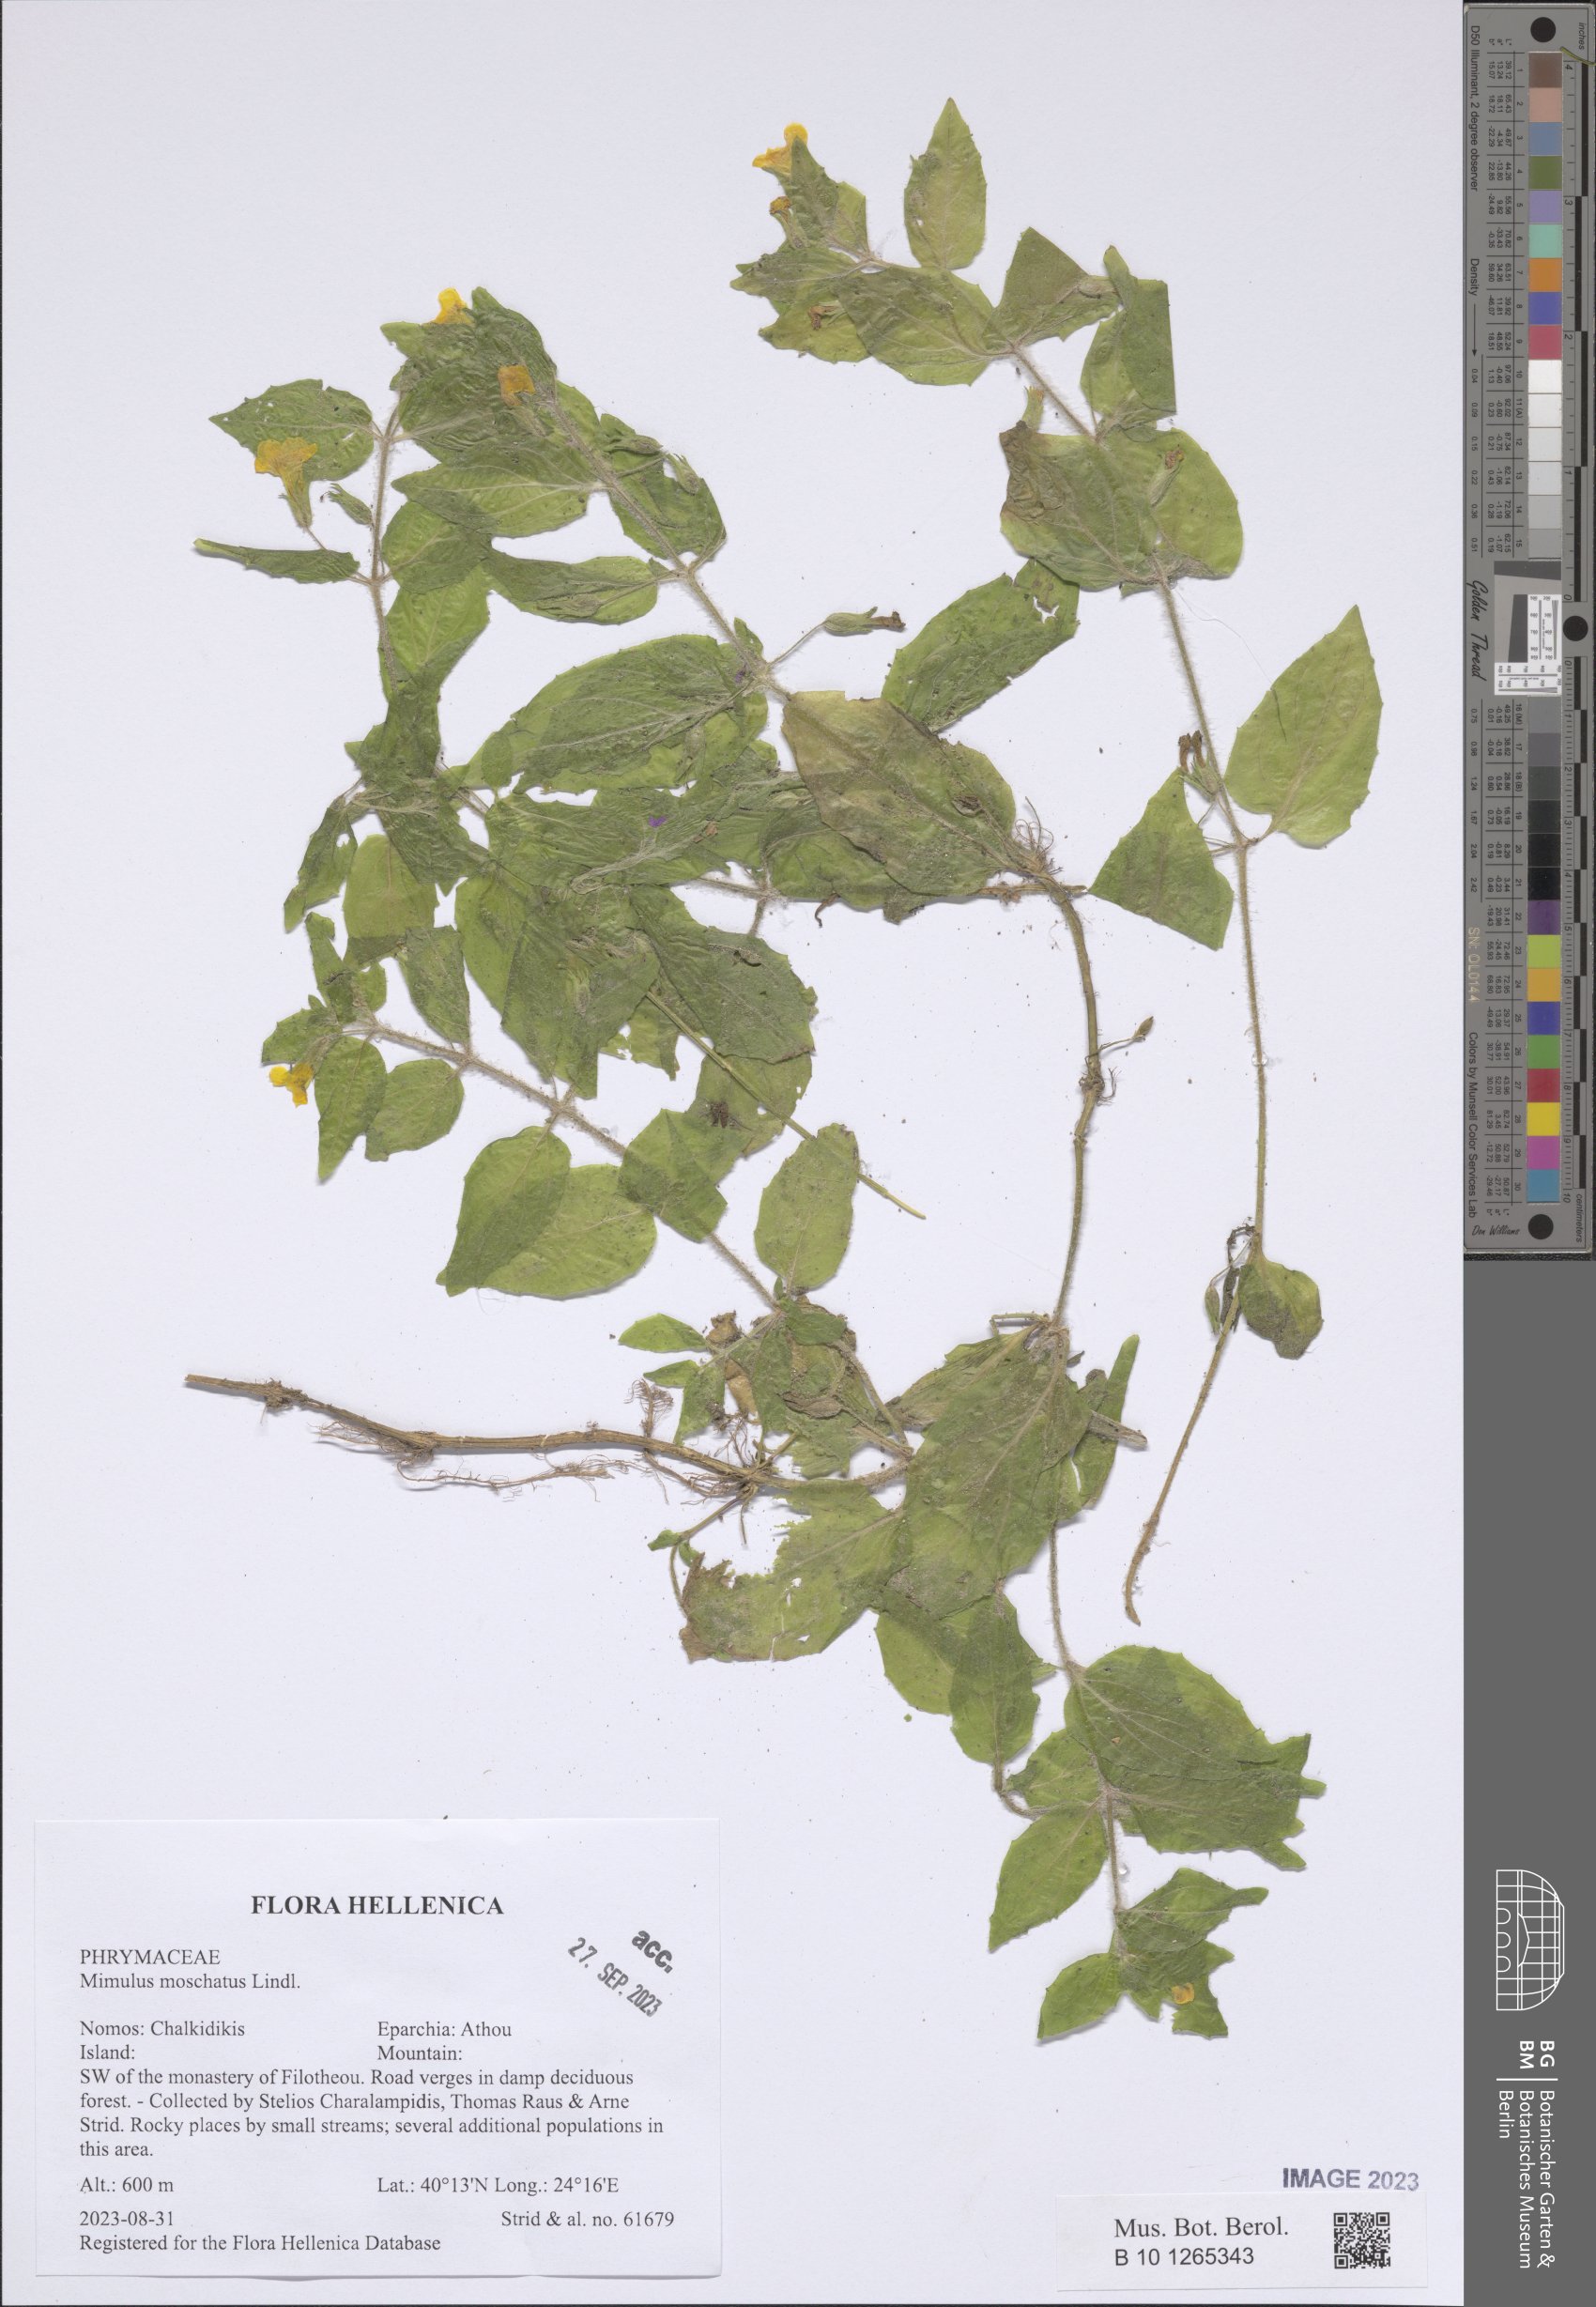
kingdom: Plantae
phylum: Tracheophyta
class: Magnoliopsida
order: Lamiales
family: Phrymaceae
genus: Erythranthe
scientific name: Erythranthe moschata
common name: Muskflower
